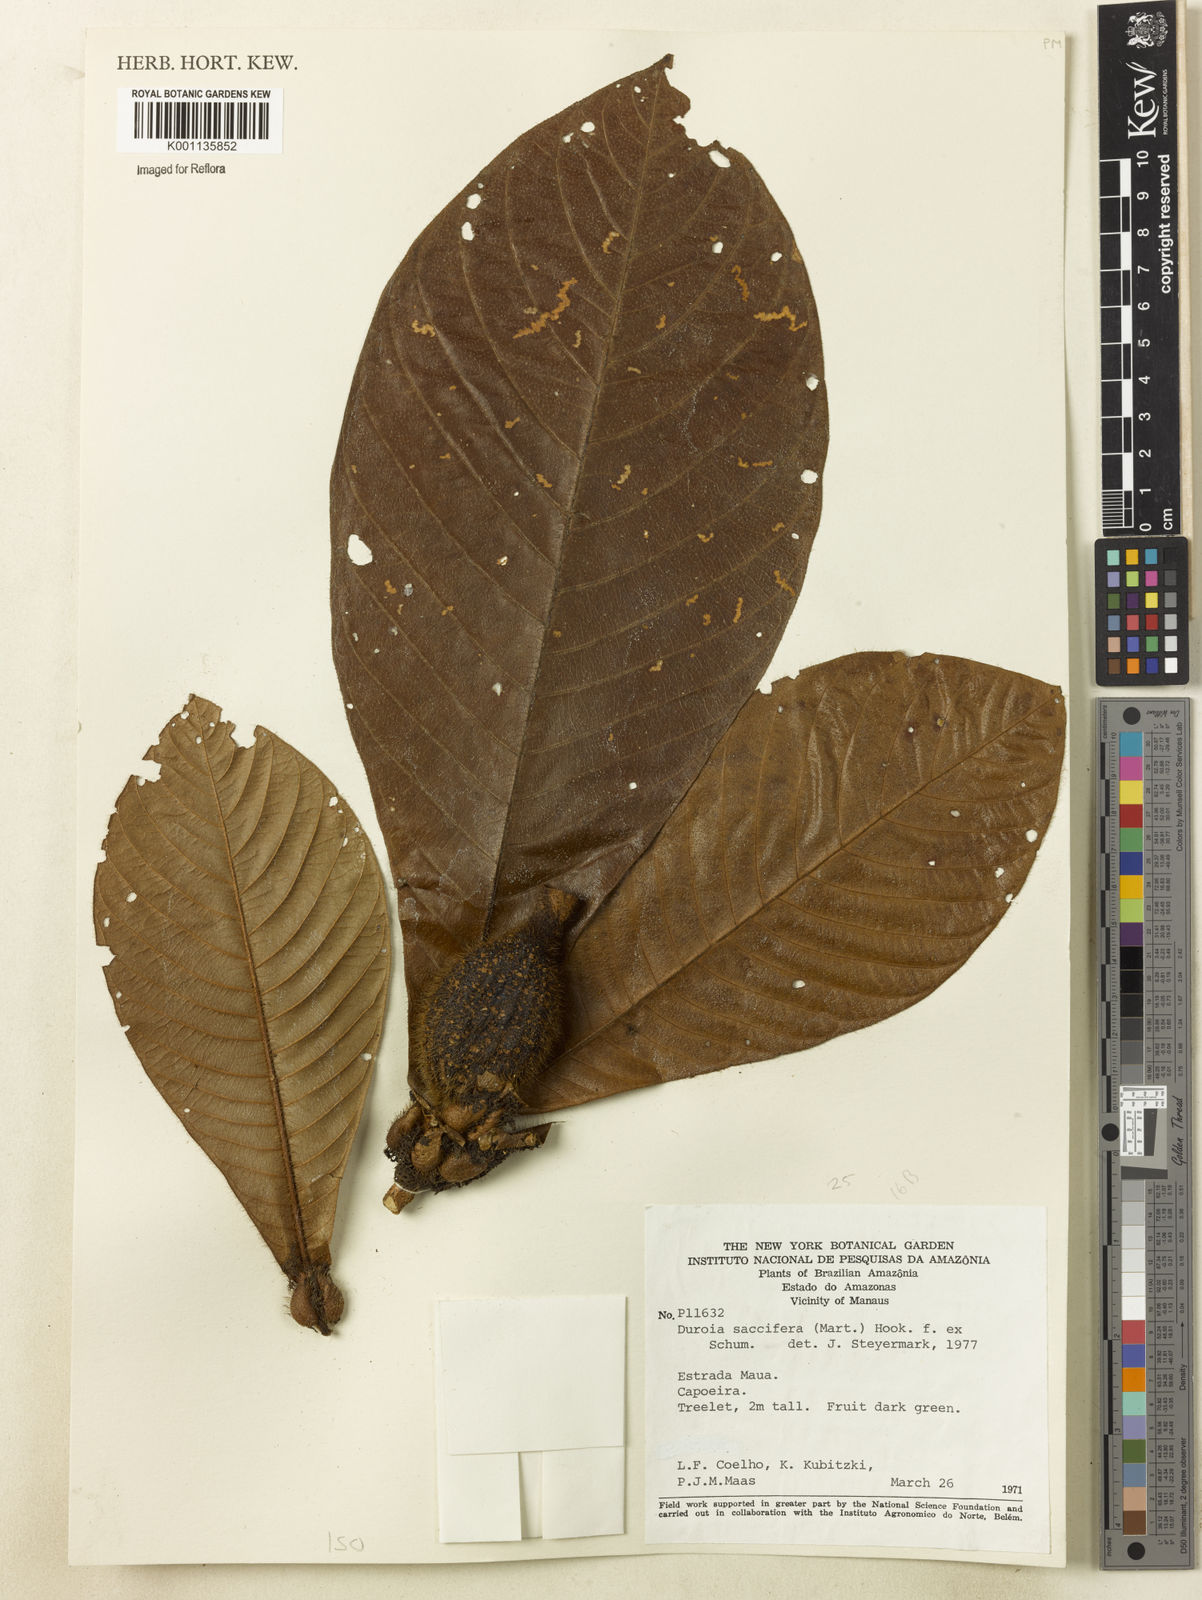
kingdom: Plantae
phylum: Tracheophyta
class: Magnoliopsida
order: Gentianales
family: Rubiaceae
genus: Duroia
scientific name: Duroia saccifera
